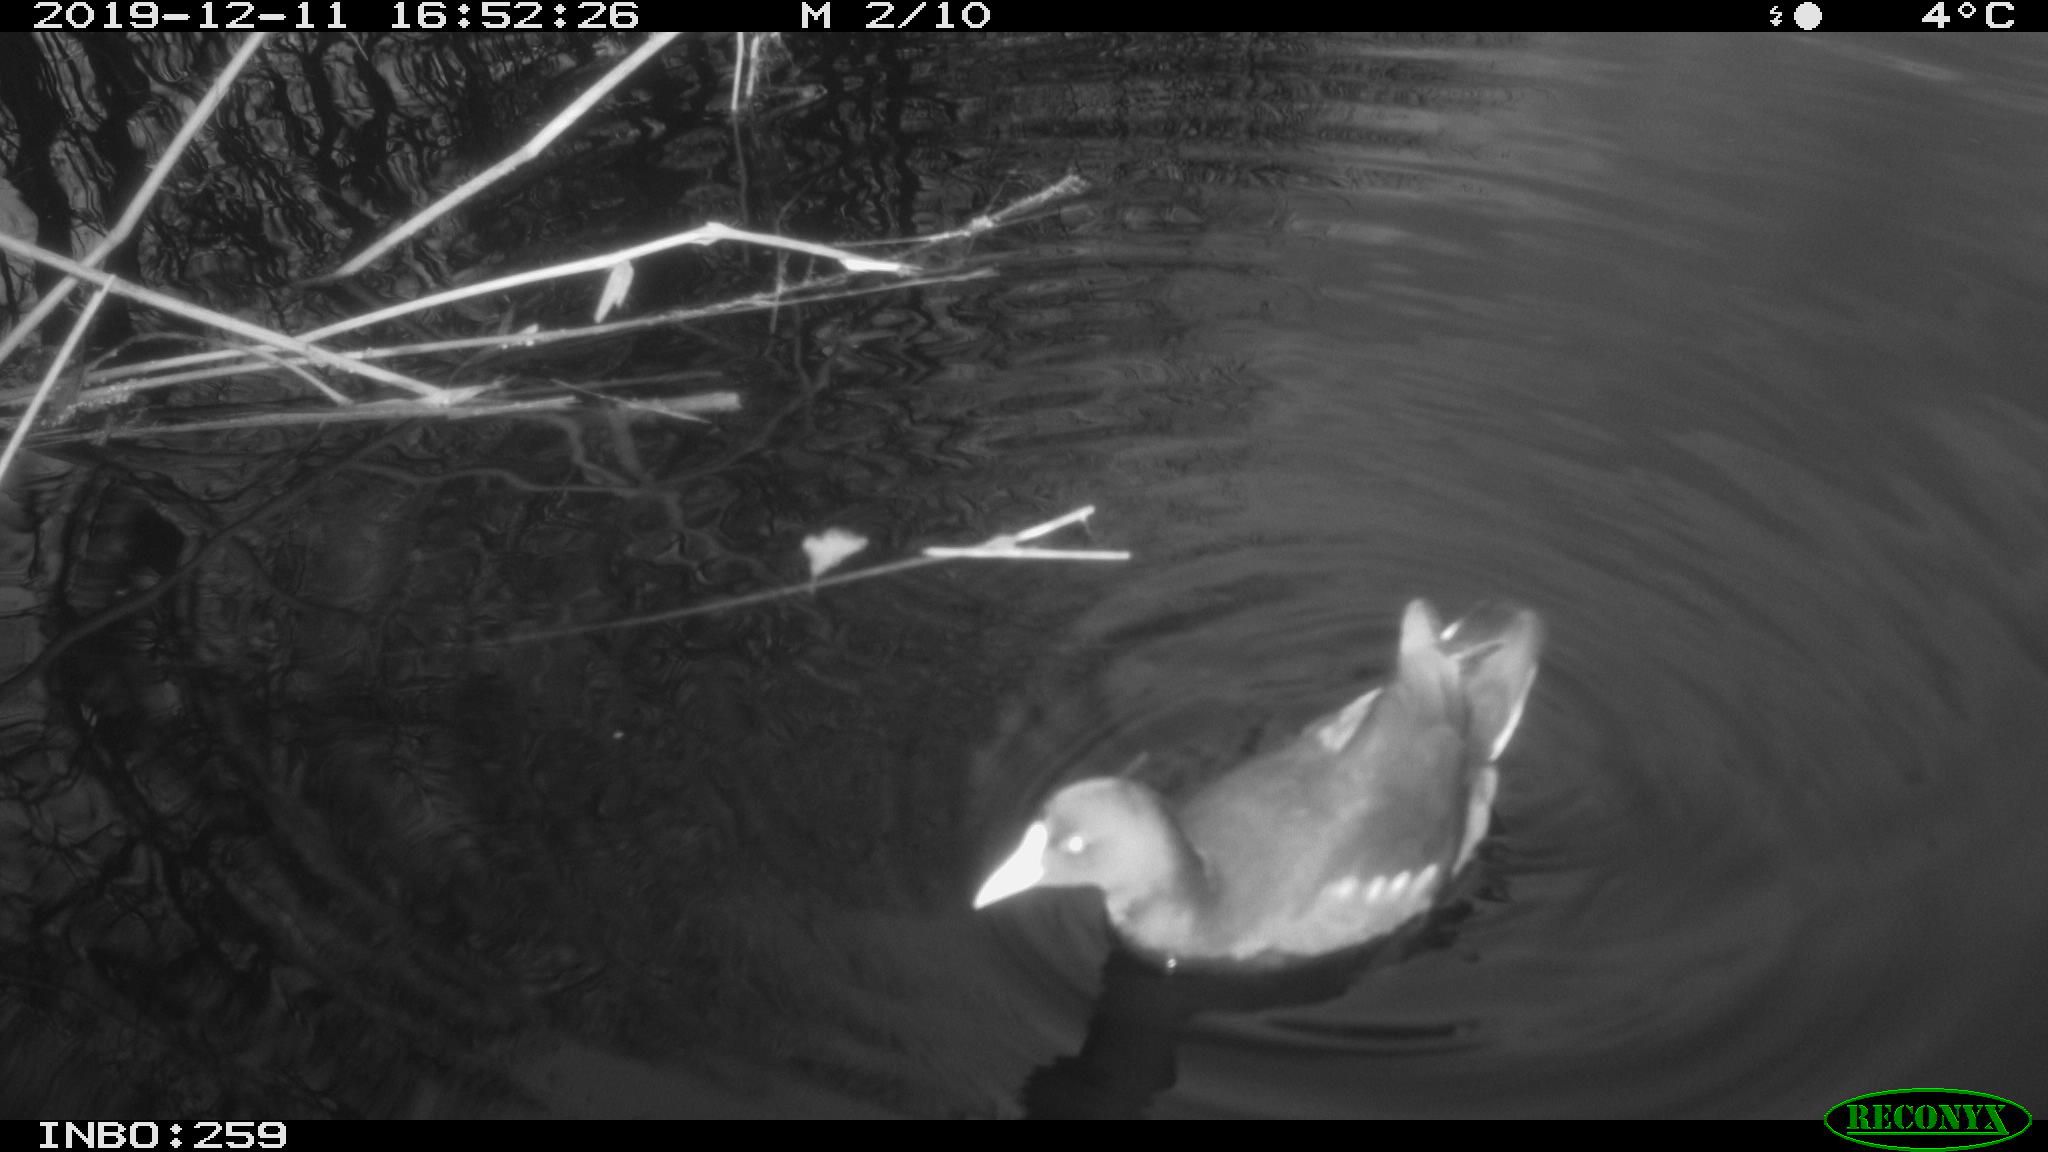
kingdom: Animalia
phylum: Chordata
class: Aves
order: Gruiformes
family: Rallidae
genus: Gallinula
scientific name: Gallinula chloropus
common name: Common moorhen
